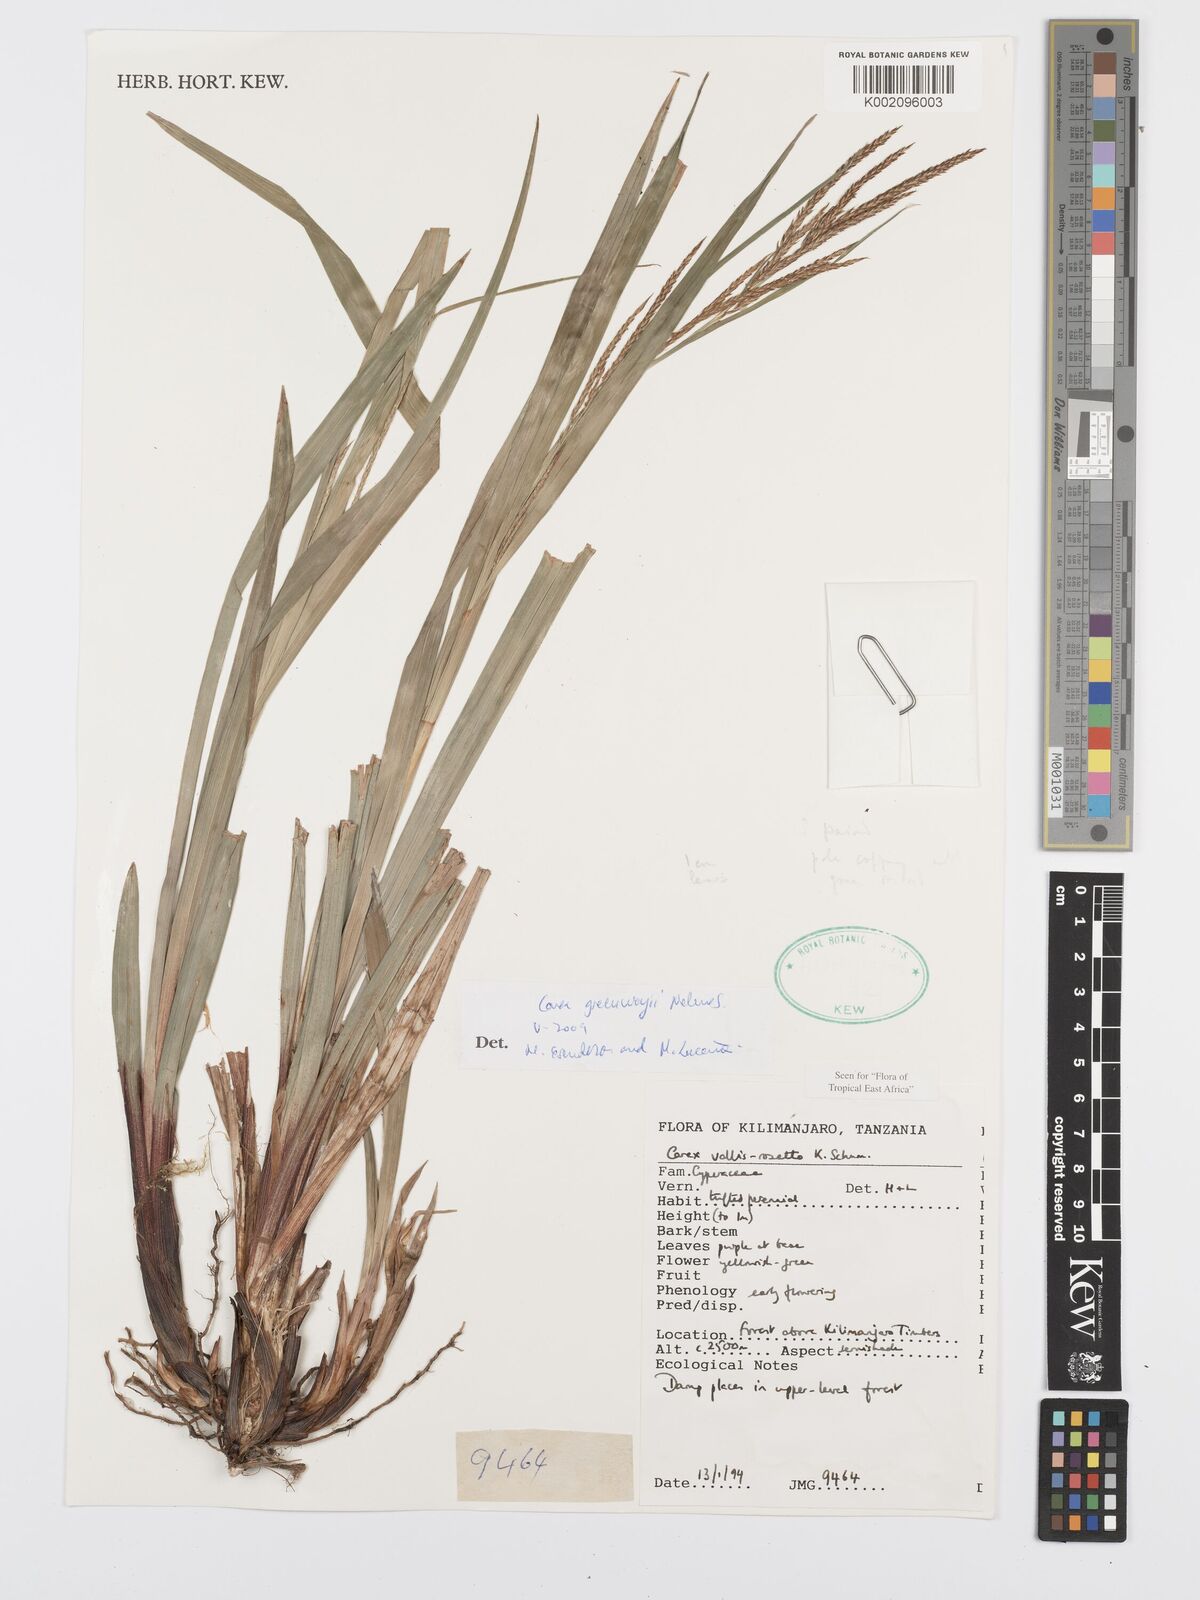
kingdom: Plantae
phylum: Tracheophyta
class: Liliopsida
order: Poales
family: Cyperaceae
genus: Carex
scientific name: Carex greenwayi
